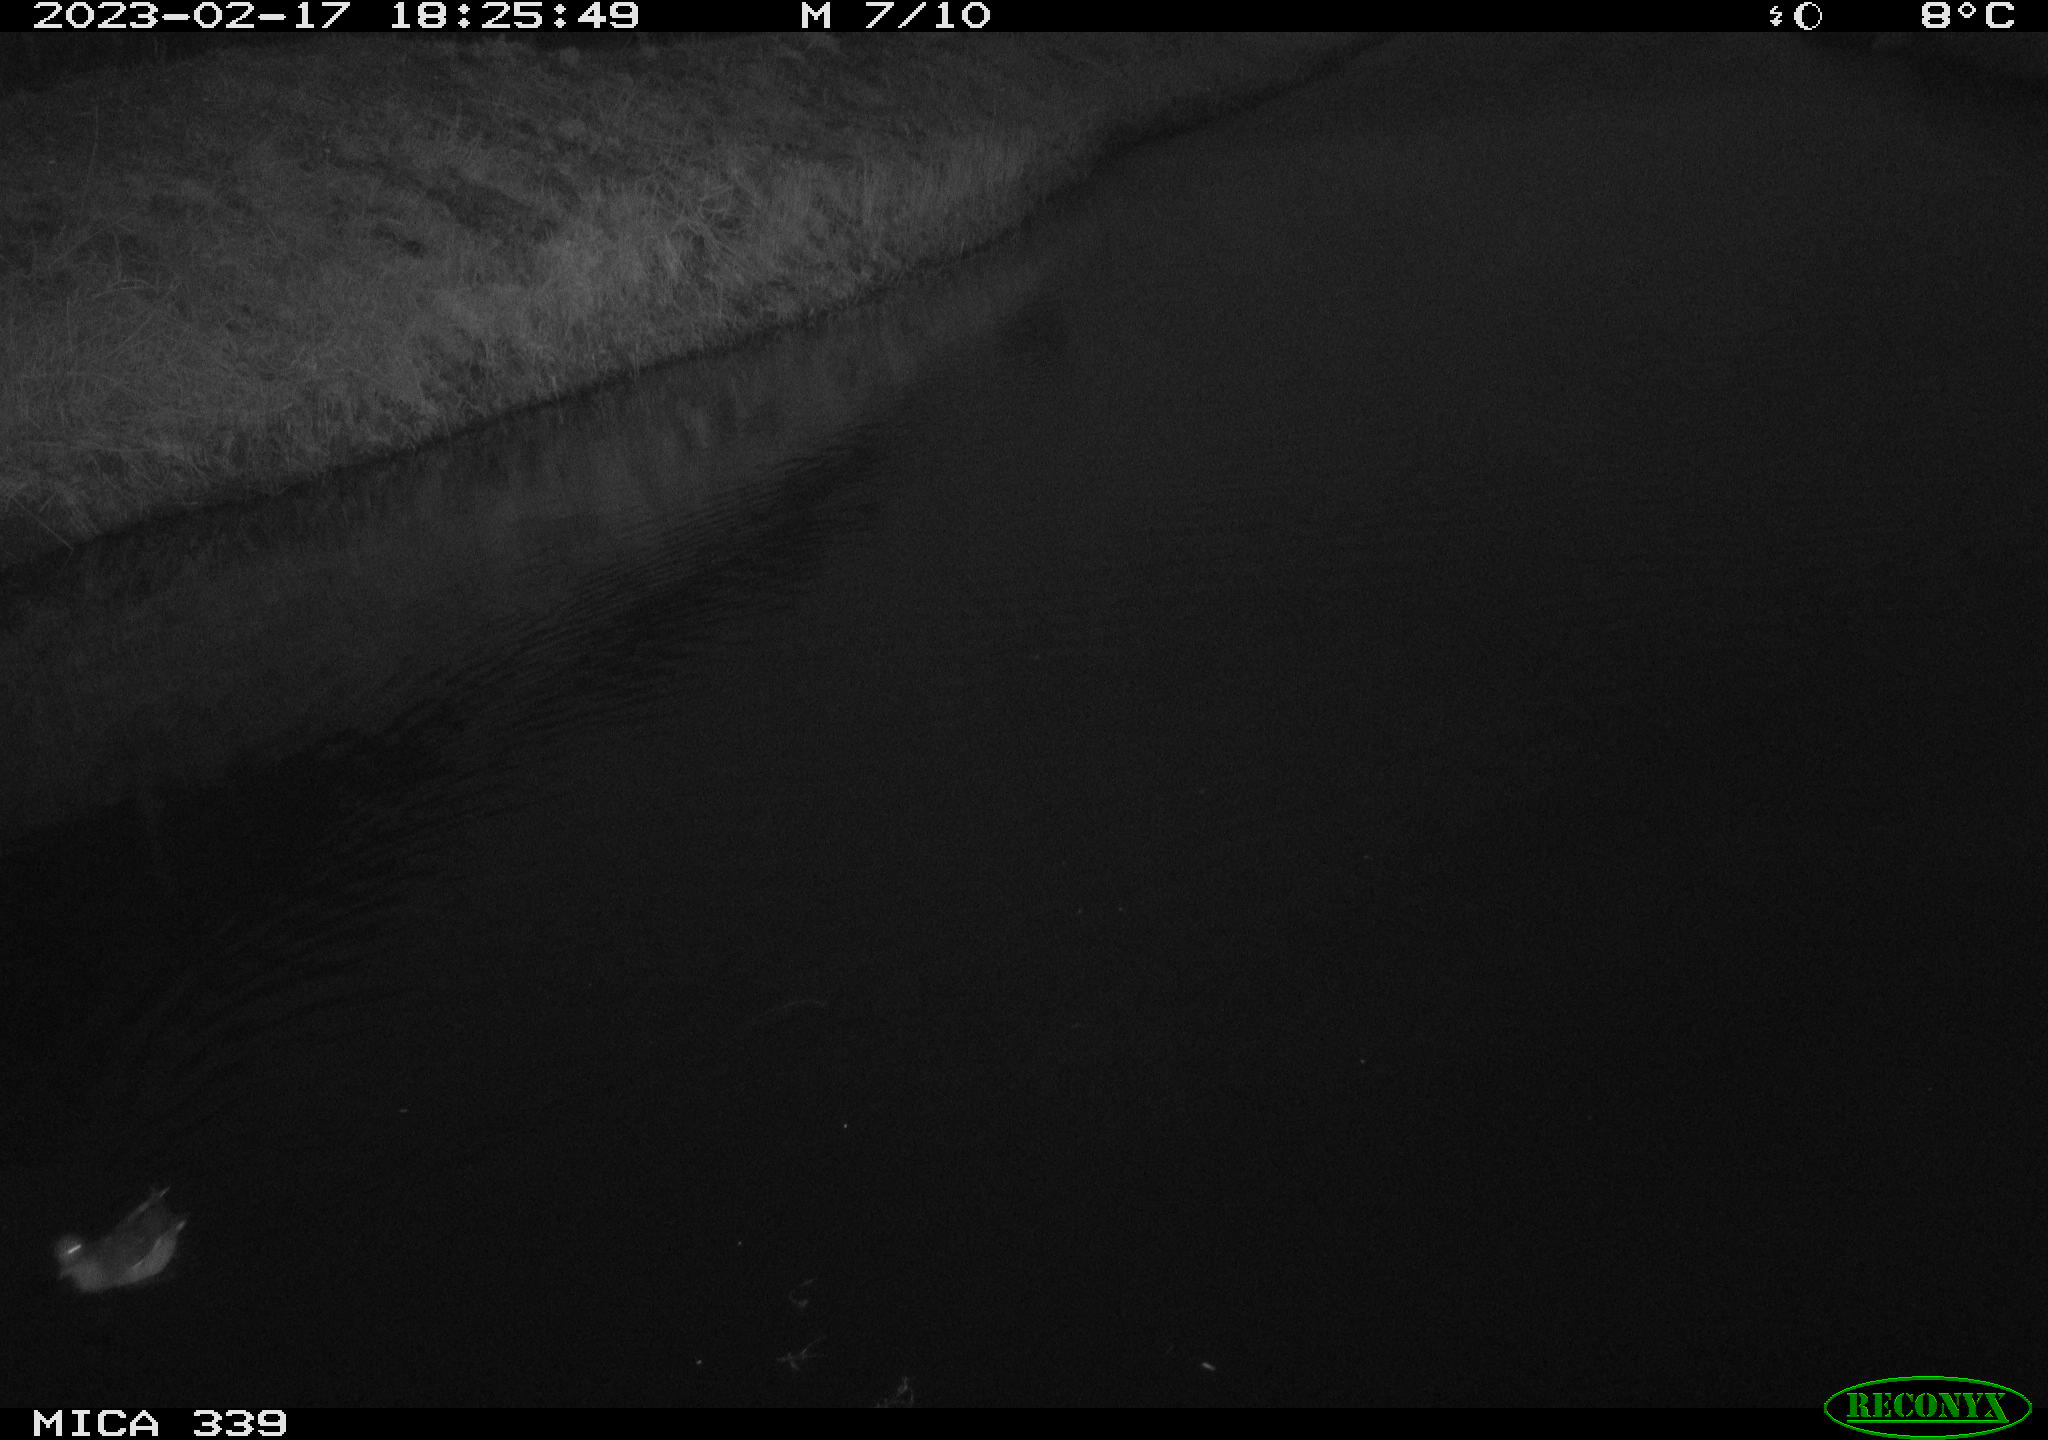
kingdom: Animalia
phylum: Chordata
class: Aves
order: Gruiformes
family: Rallidae
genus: Gallinula
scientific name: Gallinula chloropus
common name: Common moorhen
